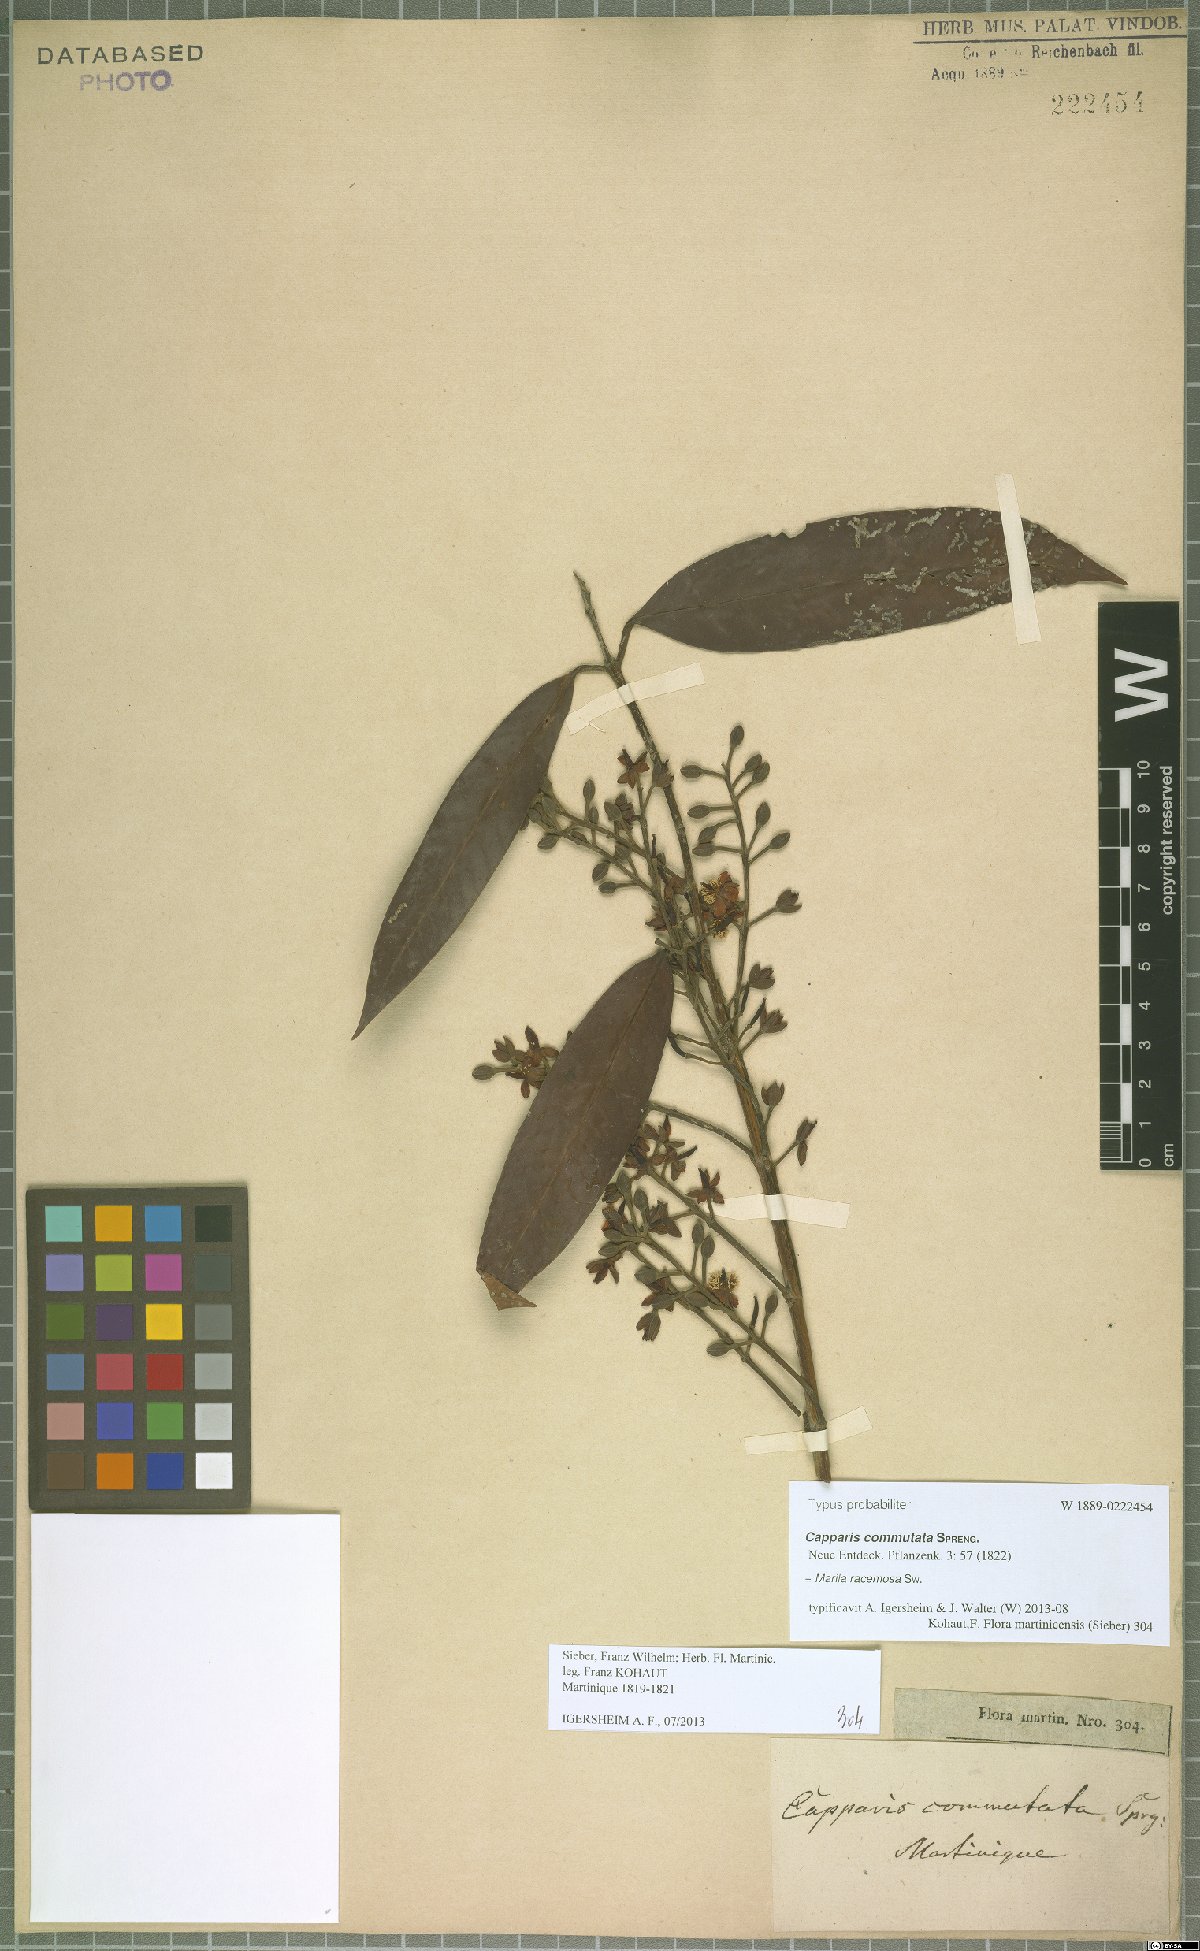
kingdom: Plantae
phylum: Tracheophyta
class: Magnoliopsida
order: Malpighiales
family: Calophyllaceae
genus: Marila
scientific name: Marila racemosa
